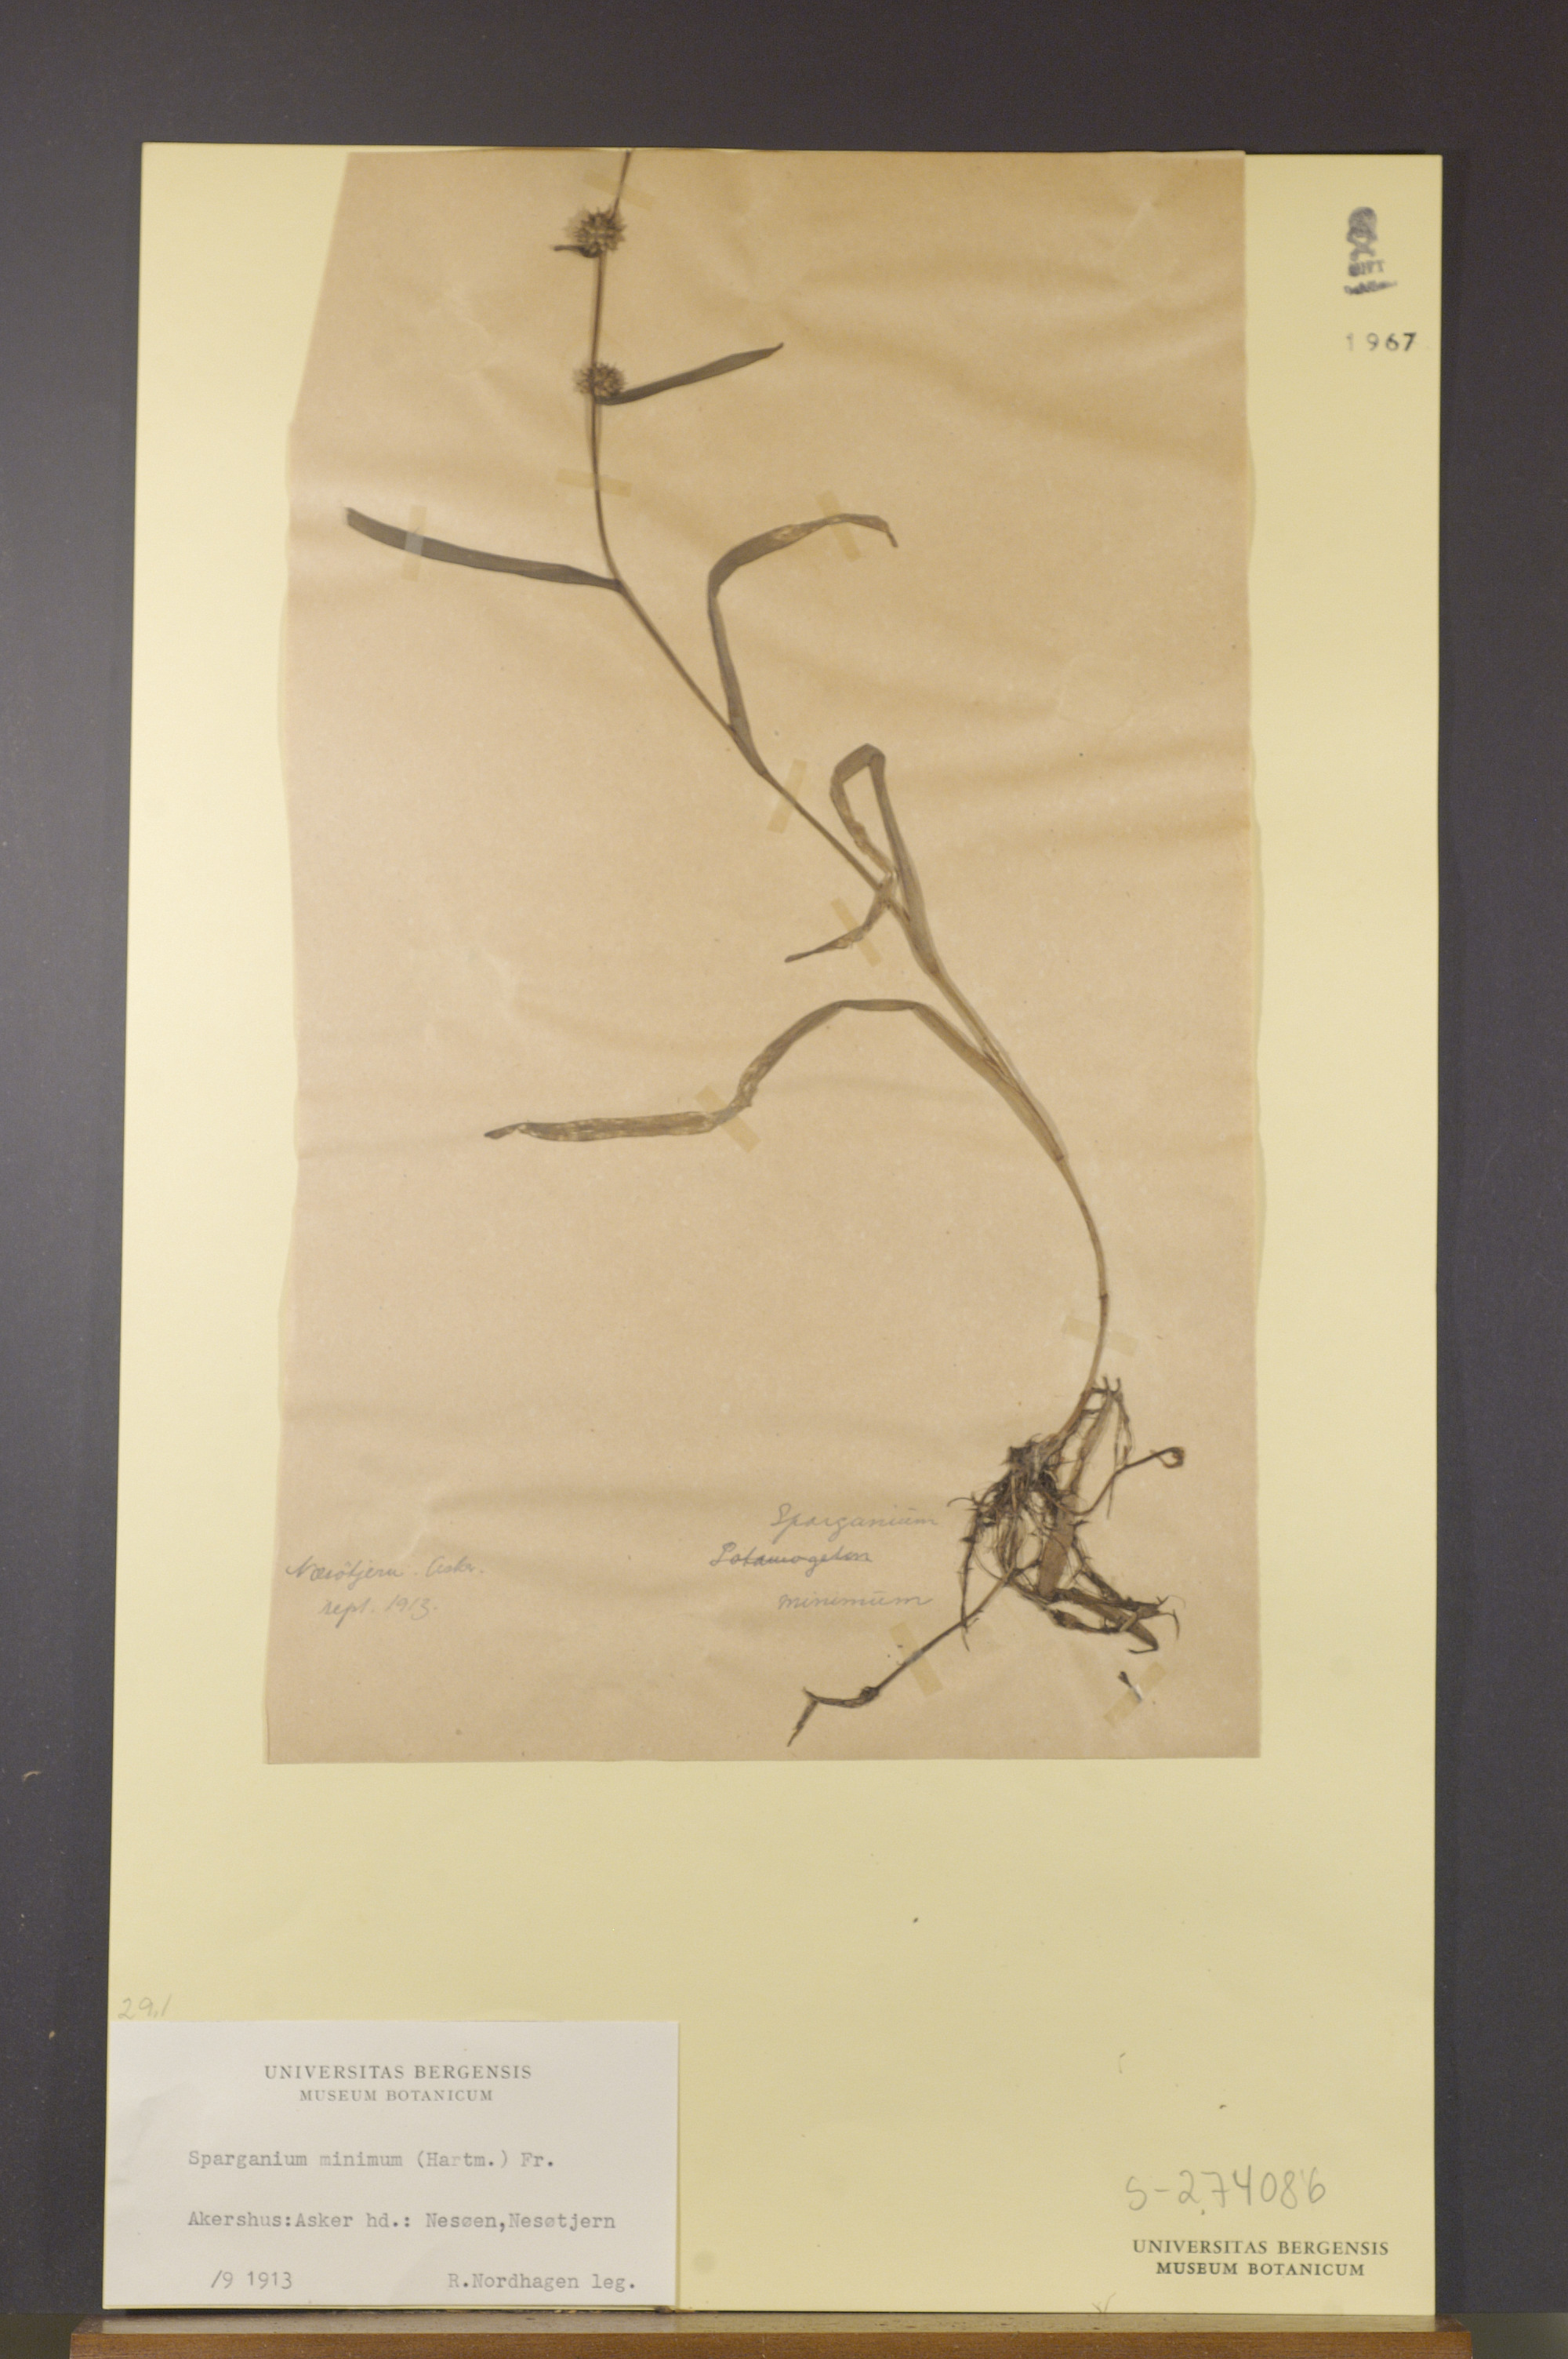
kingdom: Plantae
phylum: Tracheophyta
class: Liliopsida
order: Poales
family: Typhaceae
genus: Sparganium
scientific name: Sparganium natans
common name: Least bur-reed
